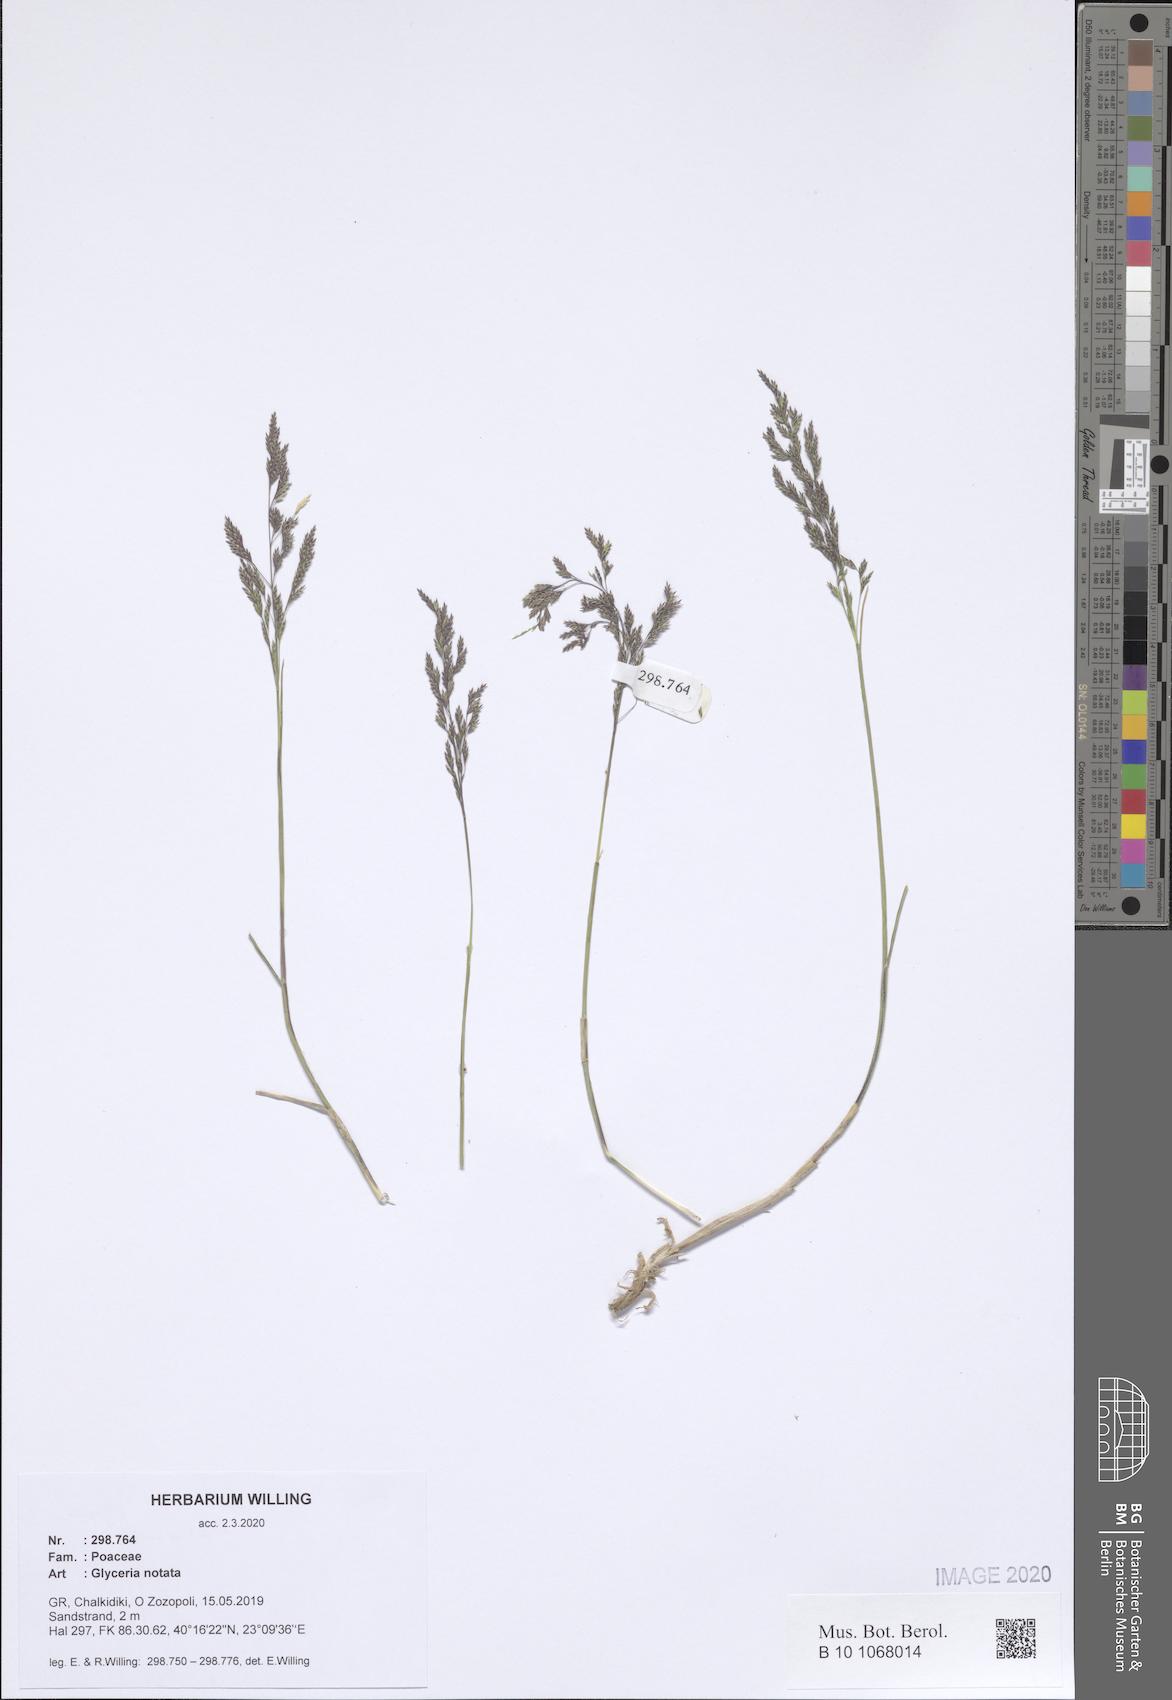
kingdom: Plantae
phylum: Tracheophyta
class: Liliopsida
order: Poales
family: Poaceae
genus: Glyceria
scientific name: Glyceria notata
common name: Plicate sweet-grass
